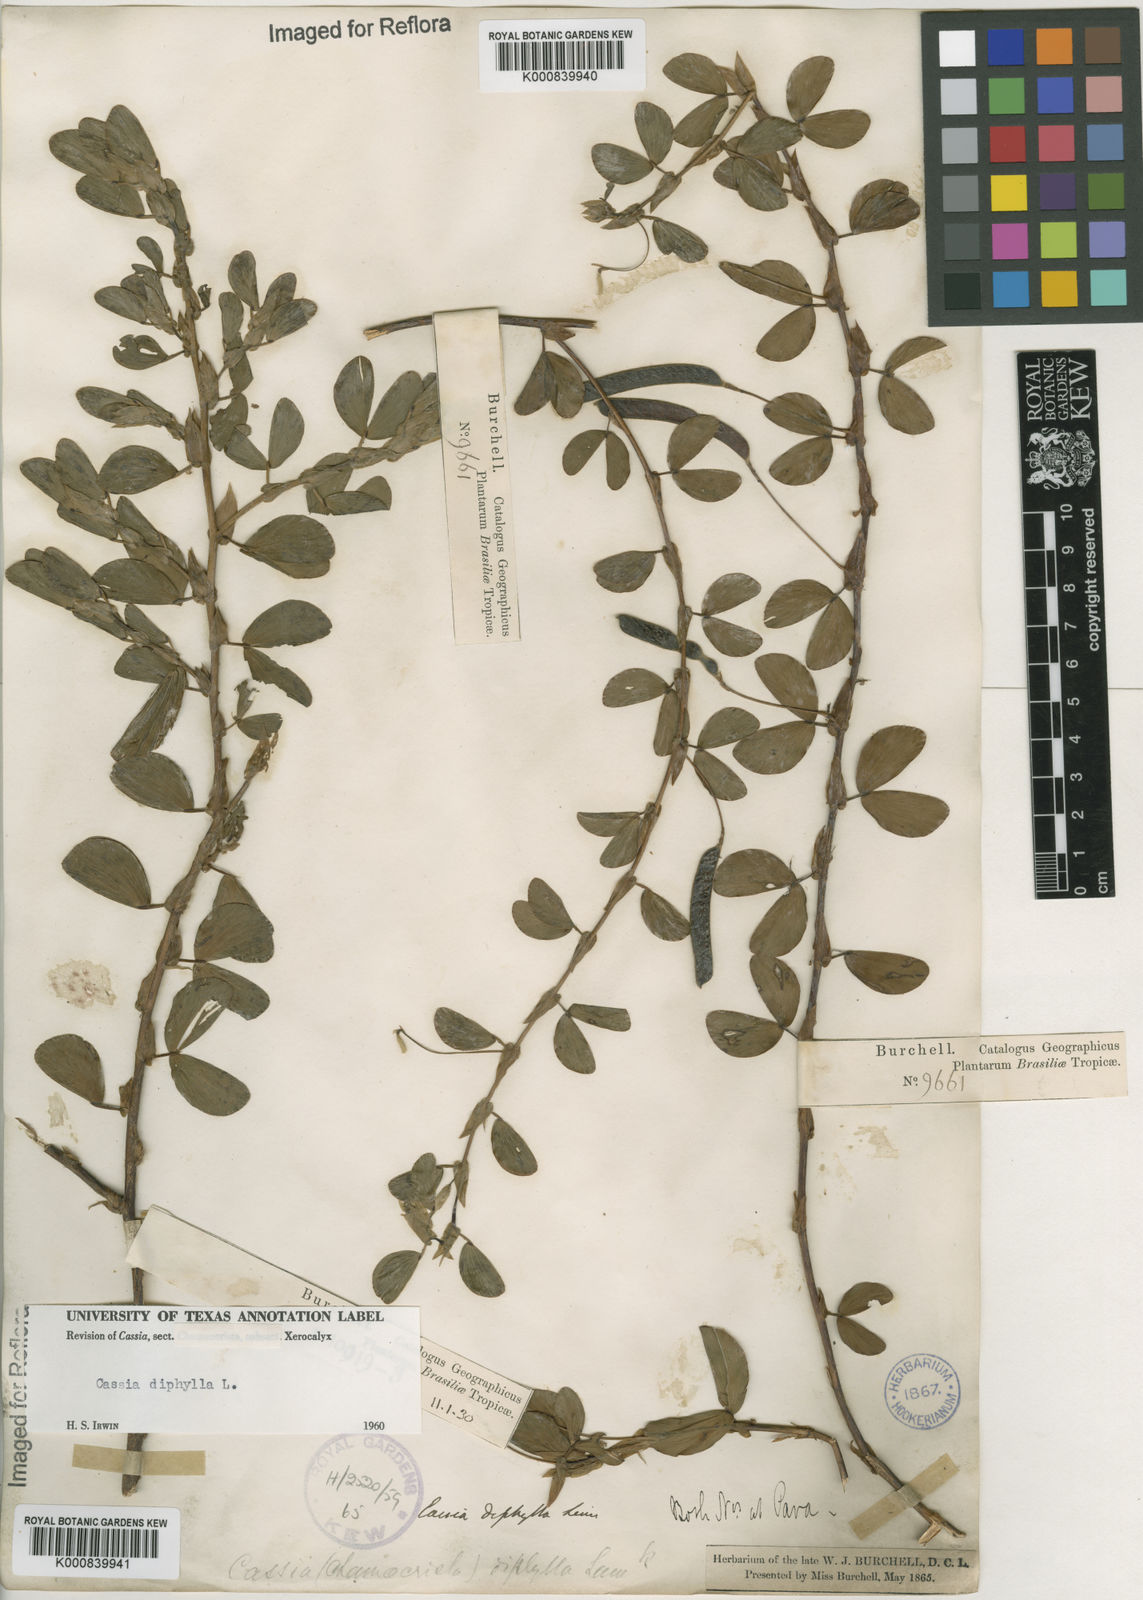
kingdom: Plantae
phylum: Tracheophyta
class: Magnoliopsida
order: Fabales
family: Fabaceae
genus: Chamaecrista
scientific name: Chamaecrista diphylla
